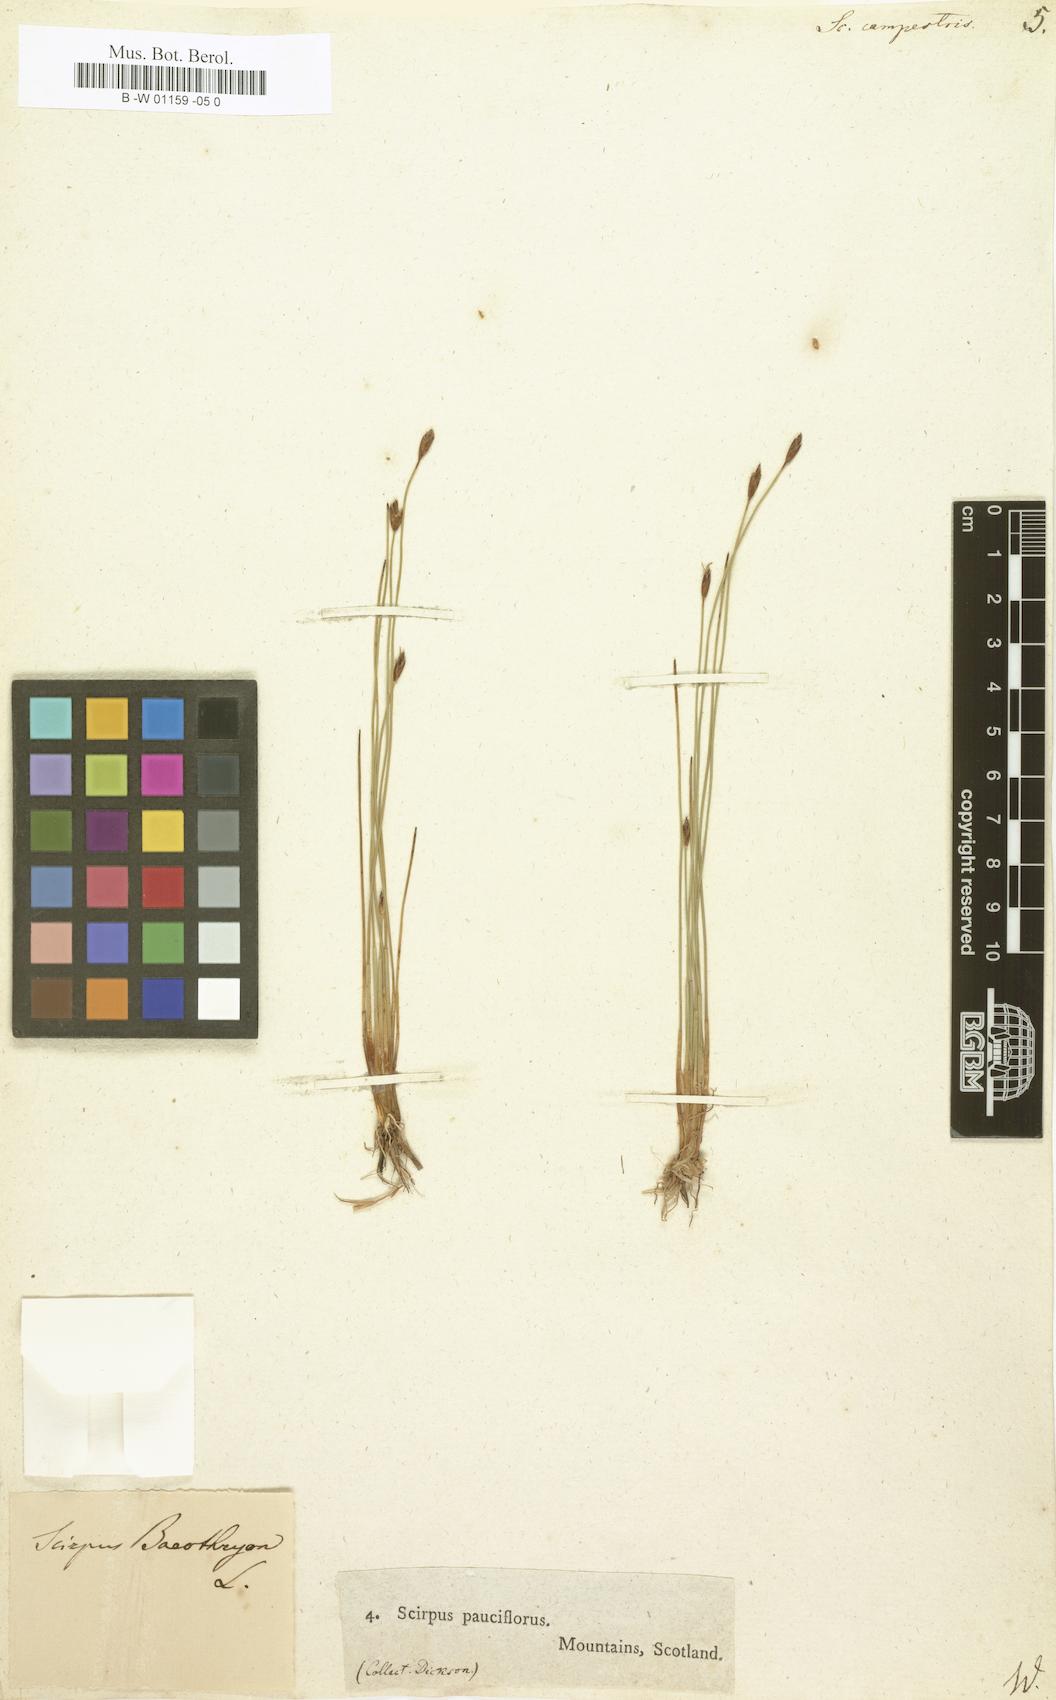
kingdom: Plantae
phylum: Tracheophyta
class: Liliopsida
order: Poales
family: Cyperaceae
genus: Eleocharis
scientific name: Eleocharis quinqueflora
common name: Few-flowered spike-rush
